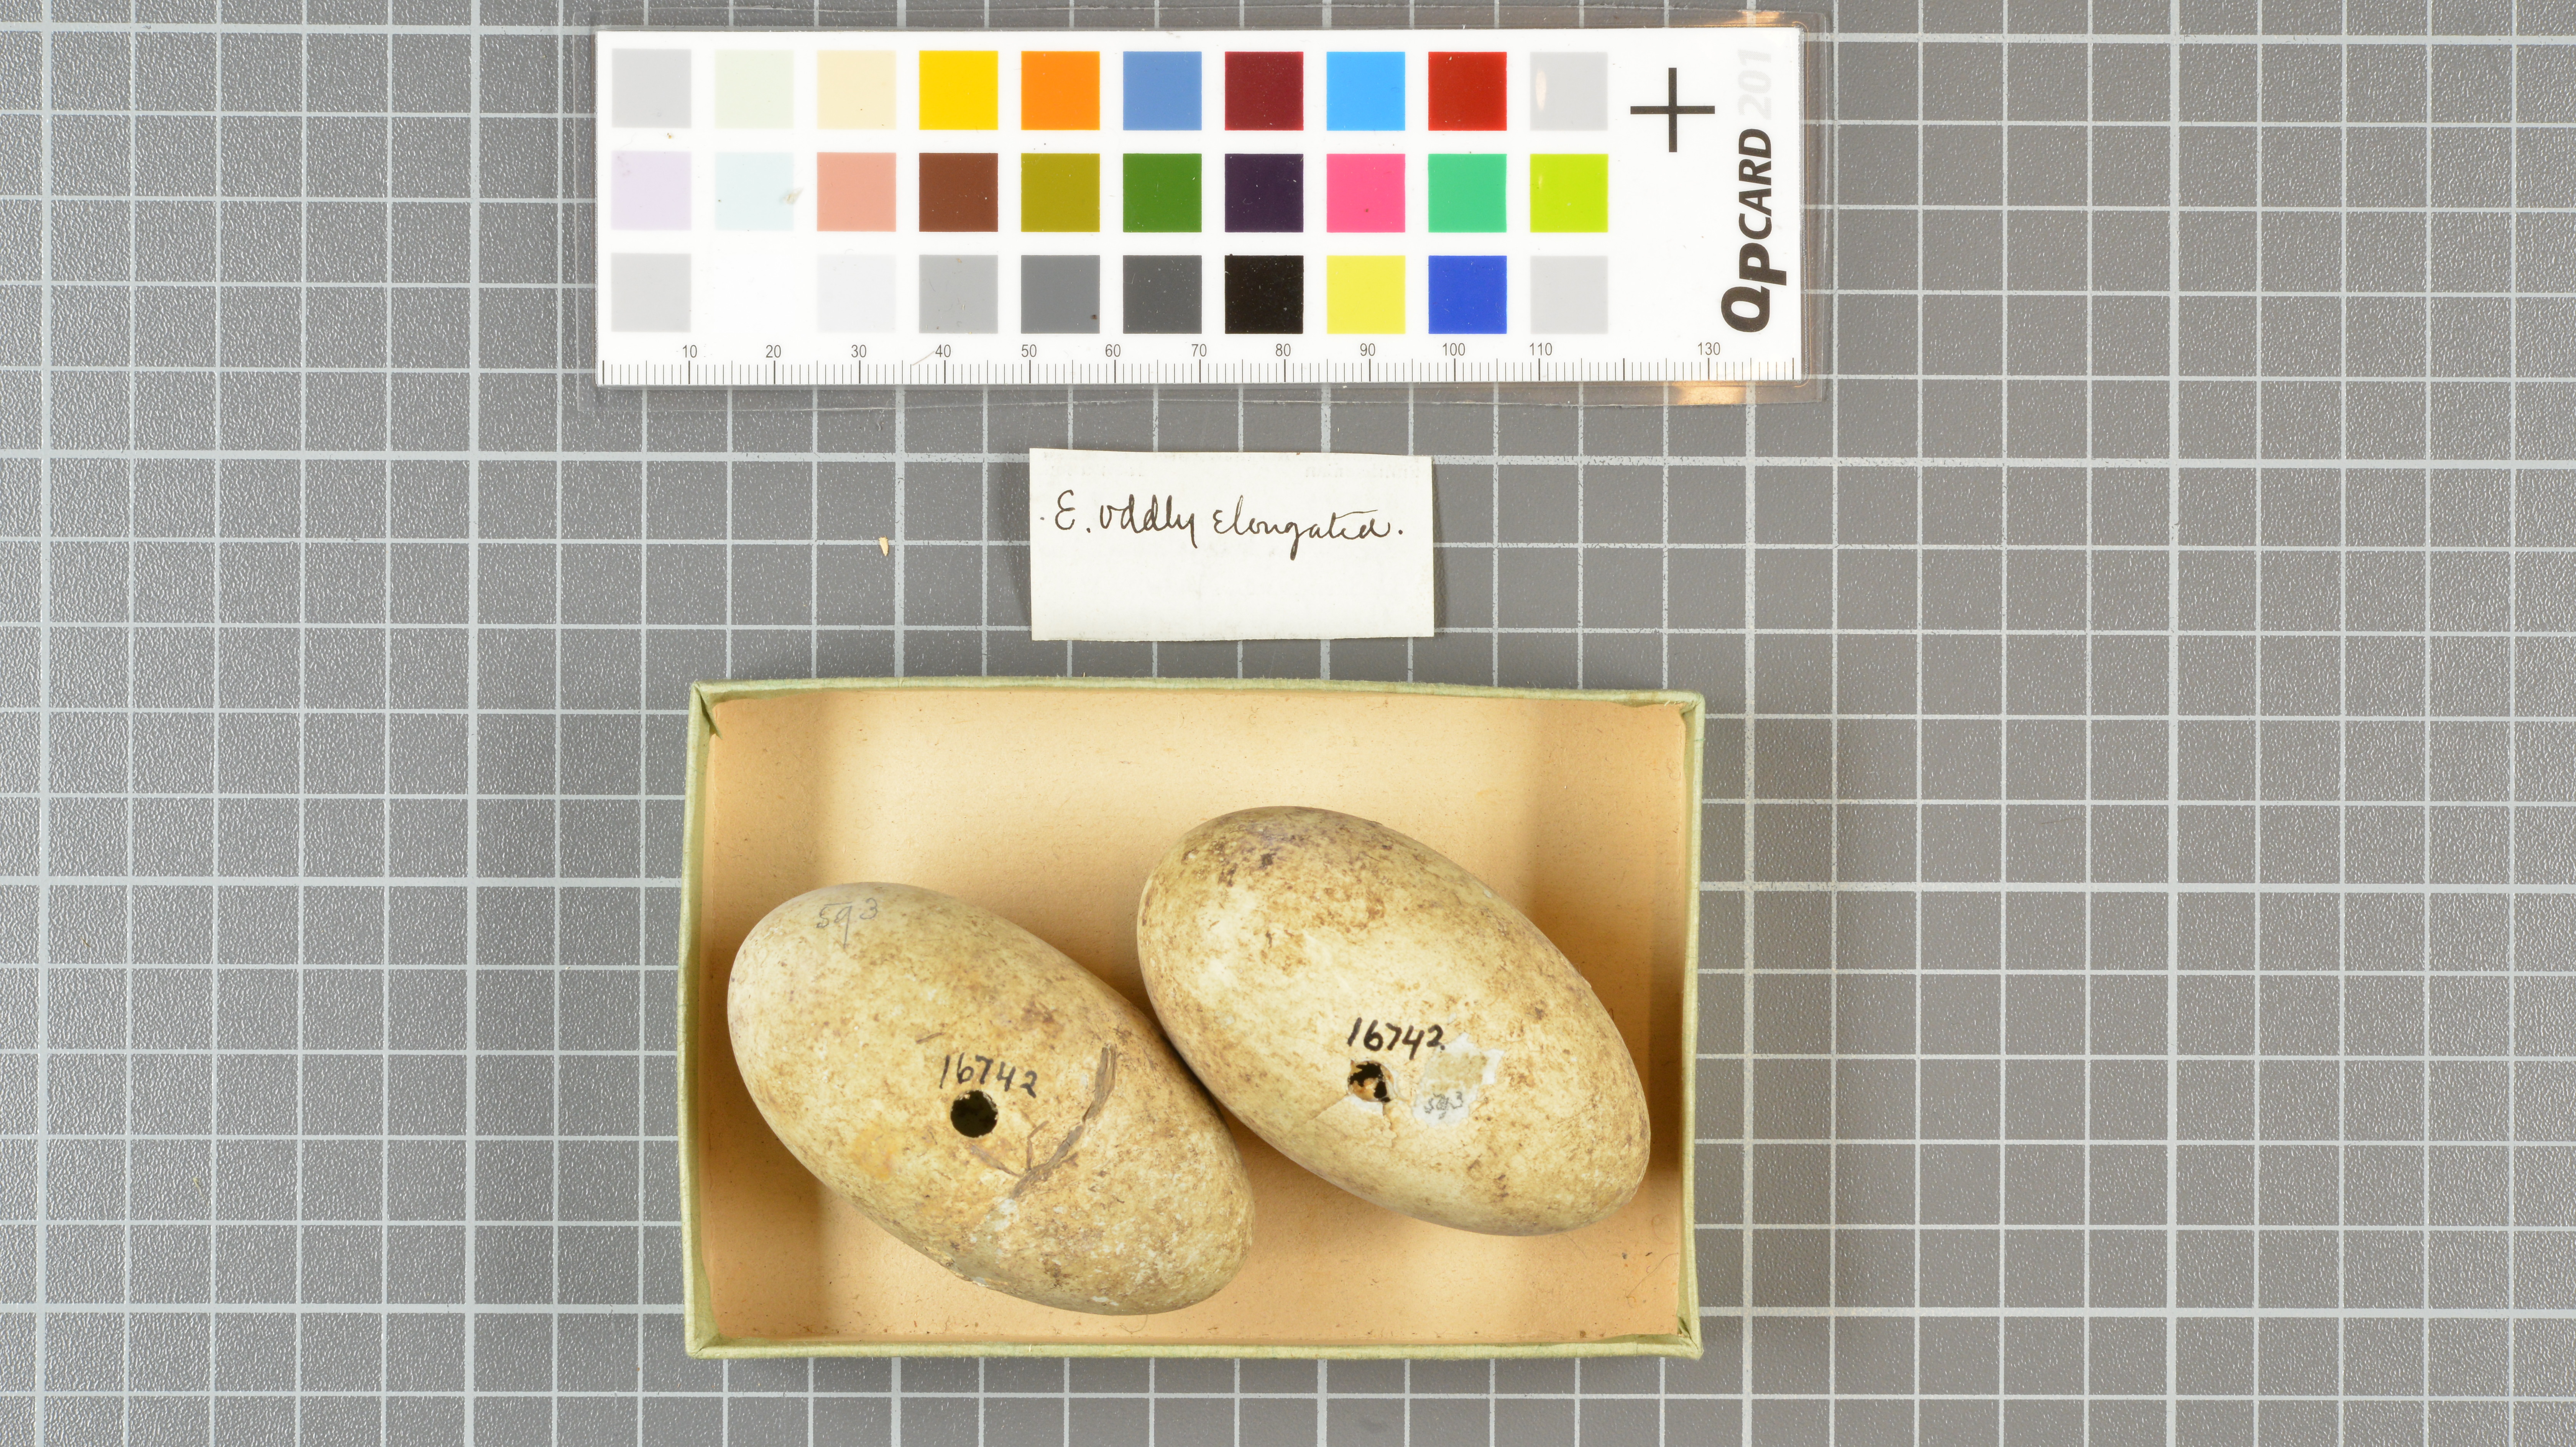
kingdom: Animalia
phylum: Chordata
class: Aves
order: Suliformes
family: Phalacrocoracidae
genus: Phalacrocorax
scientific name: Phalacrocorax auritus
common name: Double-crested cormorant
